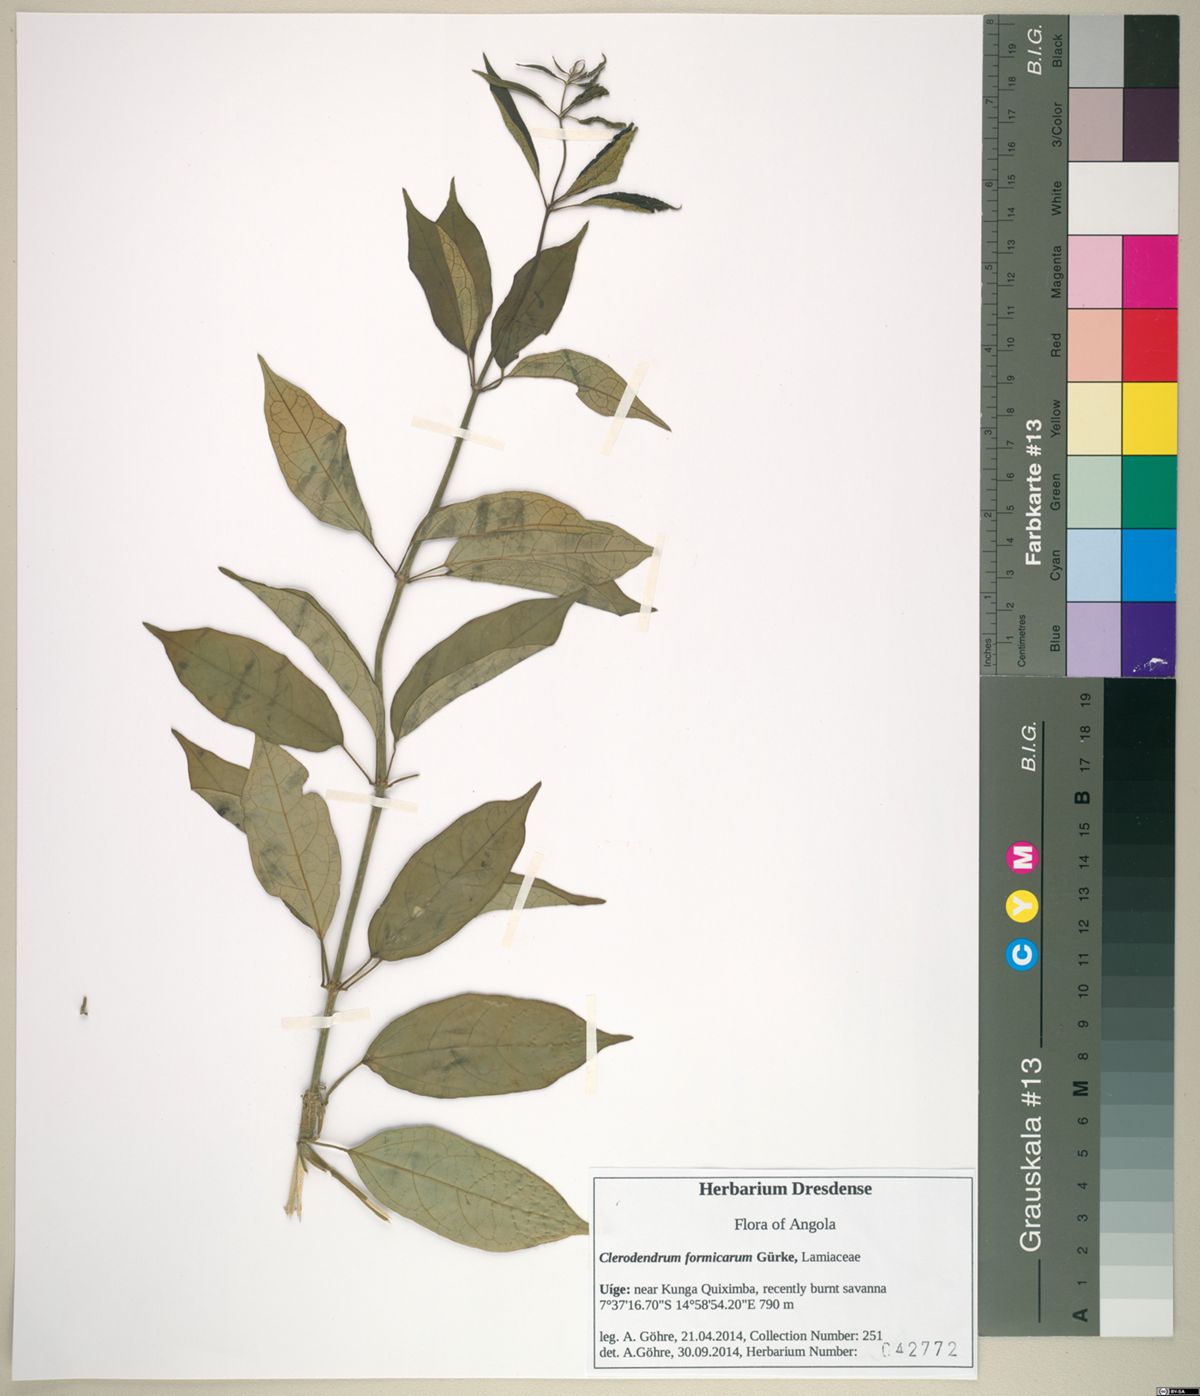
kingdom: Plantae
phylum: Tracheophyta
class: Magnoliopsida
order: Lamiales
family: Lamiaceae
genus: Clerodendrum
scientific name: Clerodendrum formicarum
